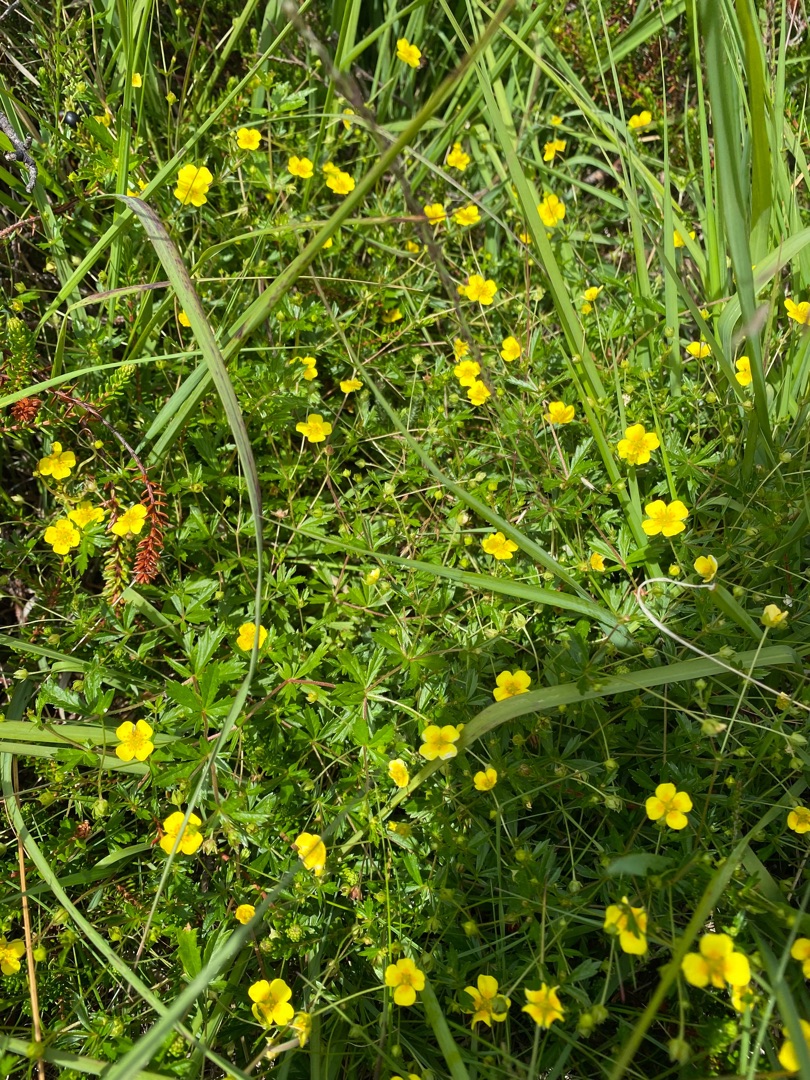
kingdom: Plantae
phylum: Tracheophyta
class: Magnoliopsida
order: Rosales
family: Rosaceae
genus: Potentilla
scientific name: Potentilla erecta
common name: Tormentil
